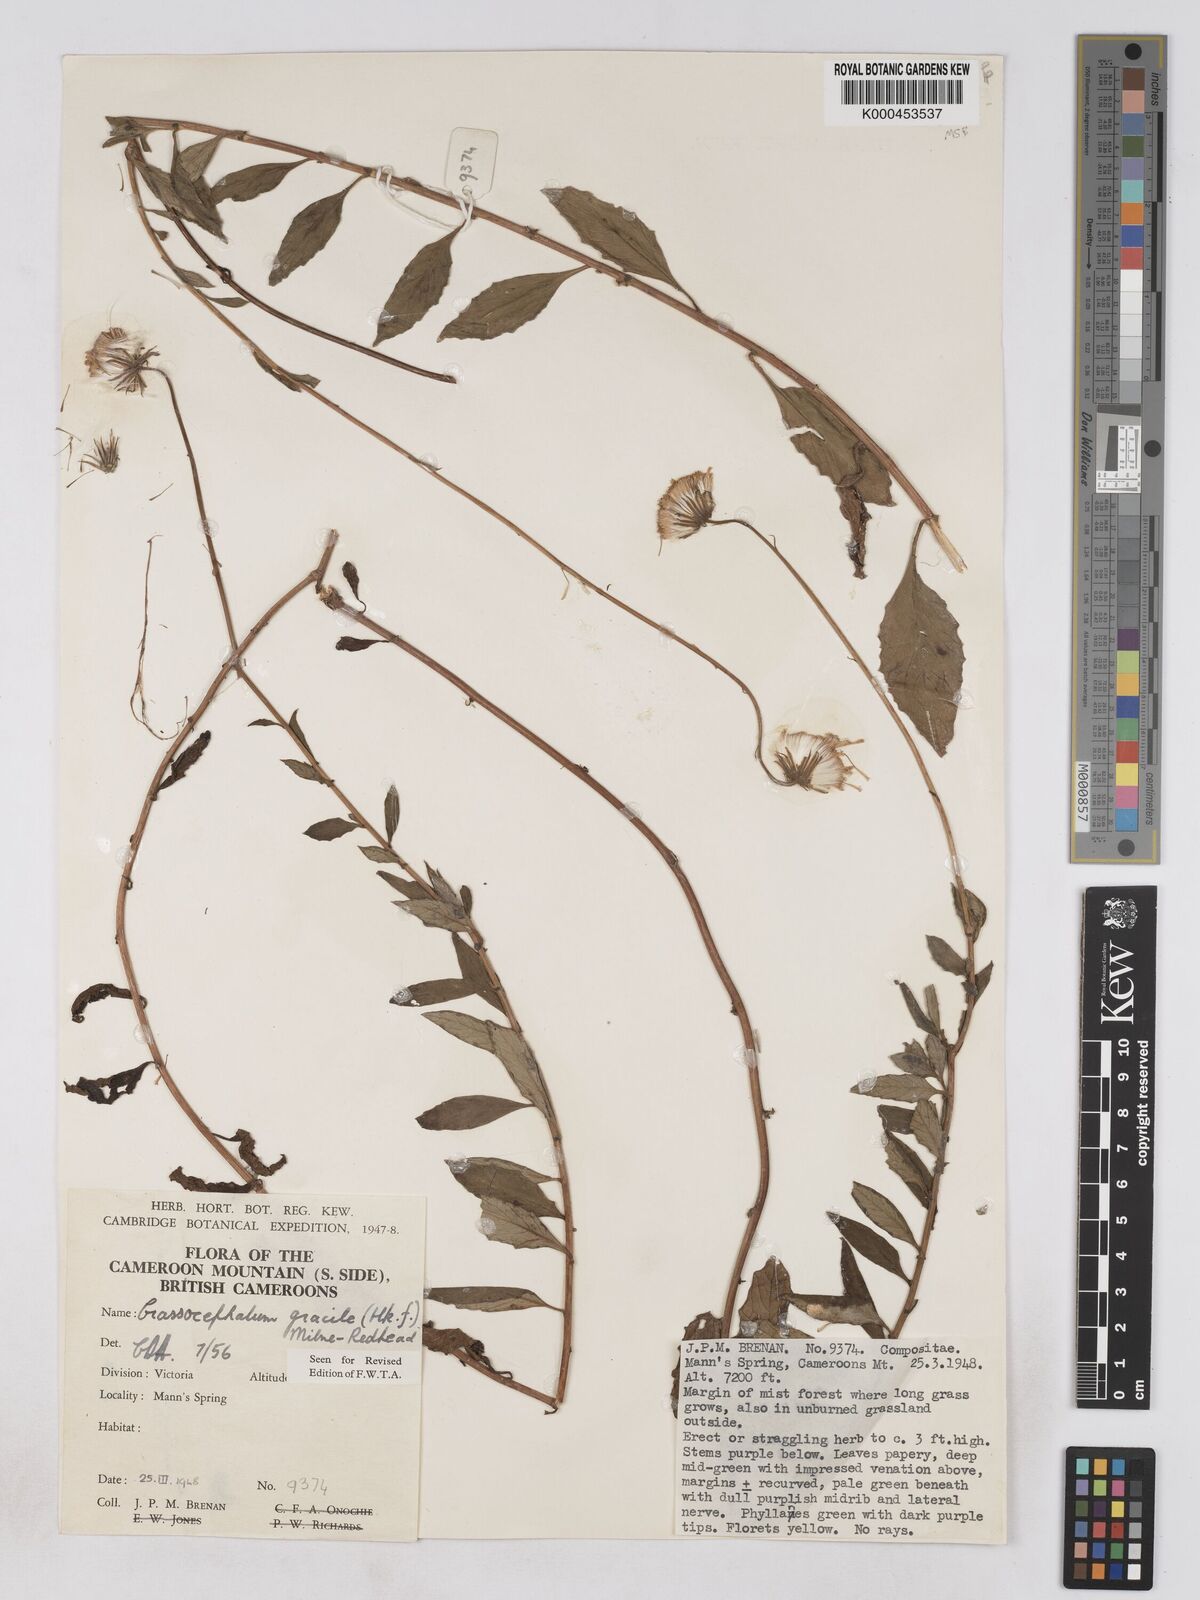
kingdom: Plantae
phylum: Tracheophyta
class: Magnoliopsida
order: Asterales
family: Asteraceae
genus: Crassocephalum
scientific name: Crassocephalum gracile
